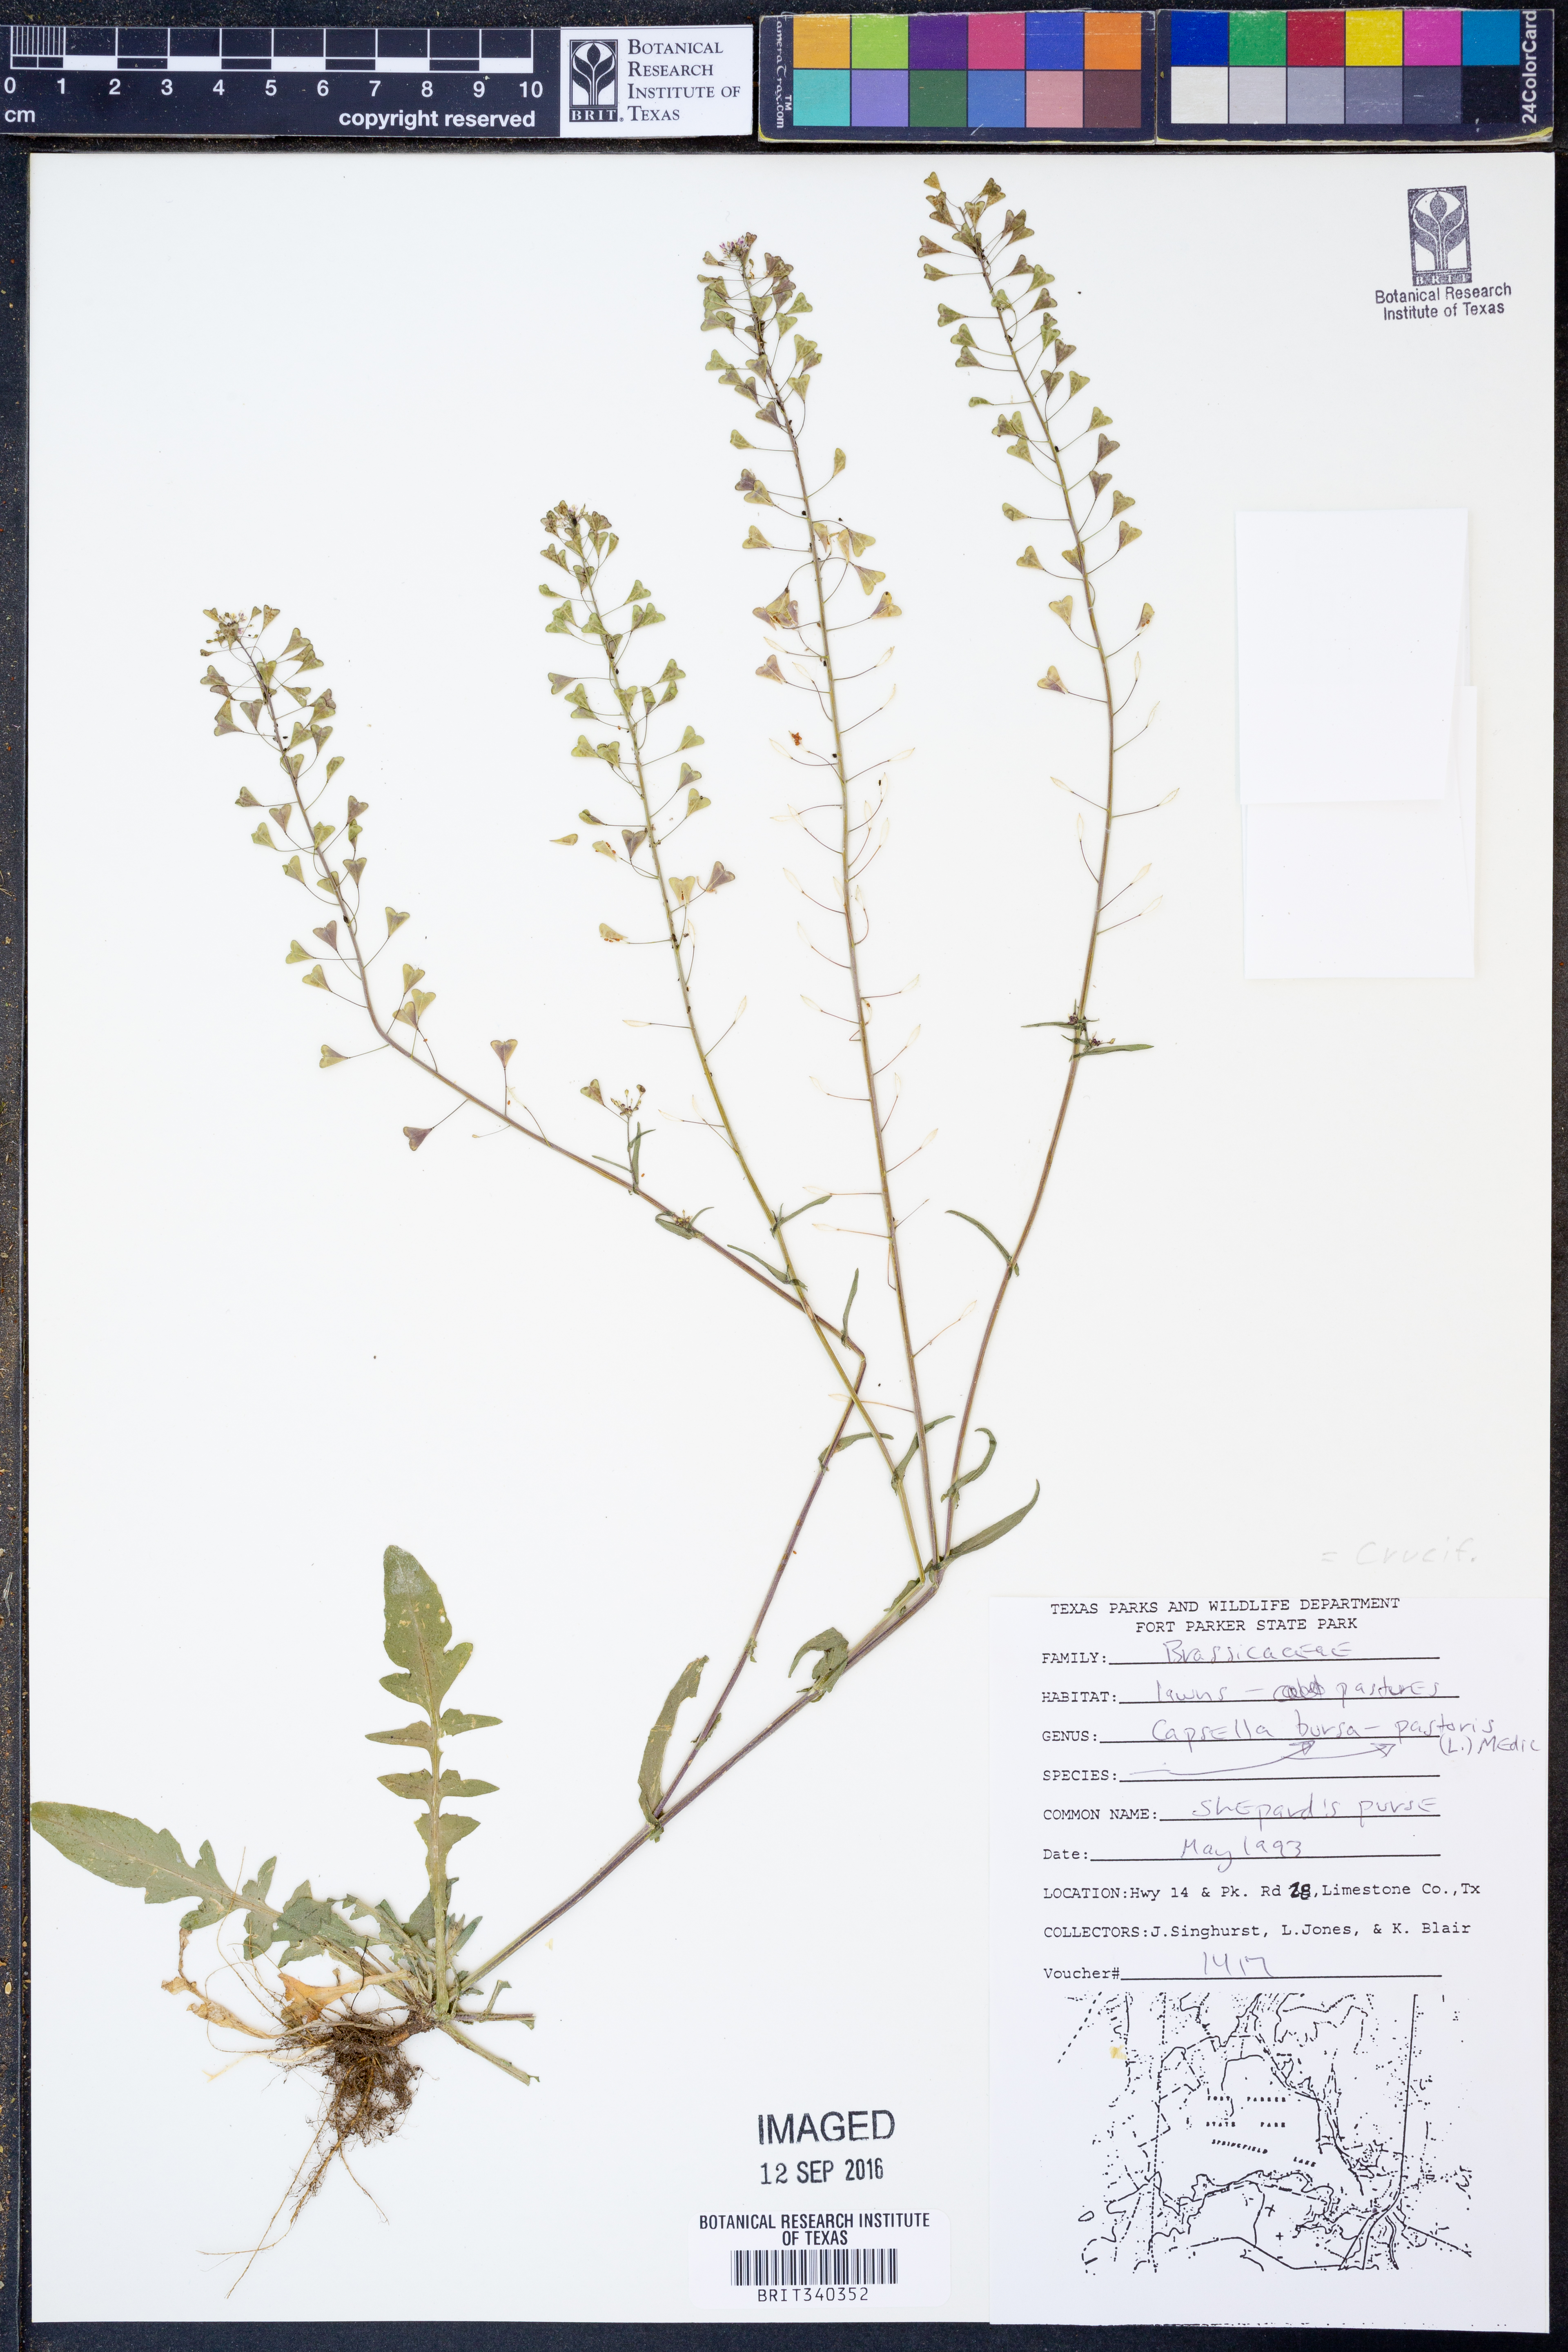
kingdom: Plantae
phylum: Tracheophyta
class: Magnoliopsida
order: Brassicales
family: Brassicaceae
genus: Capsella
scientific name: Capsella bursa-pastoris
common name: Shepherd's purse
